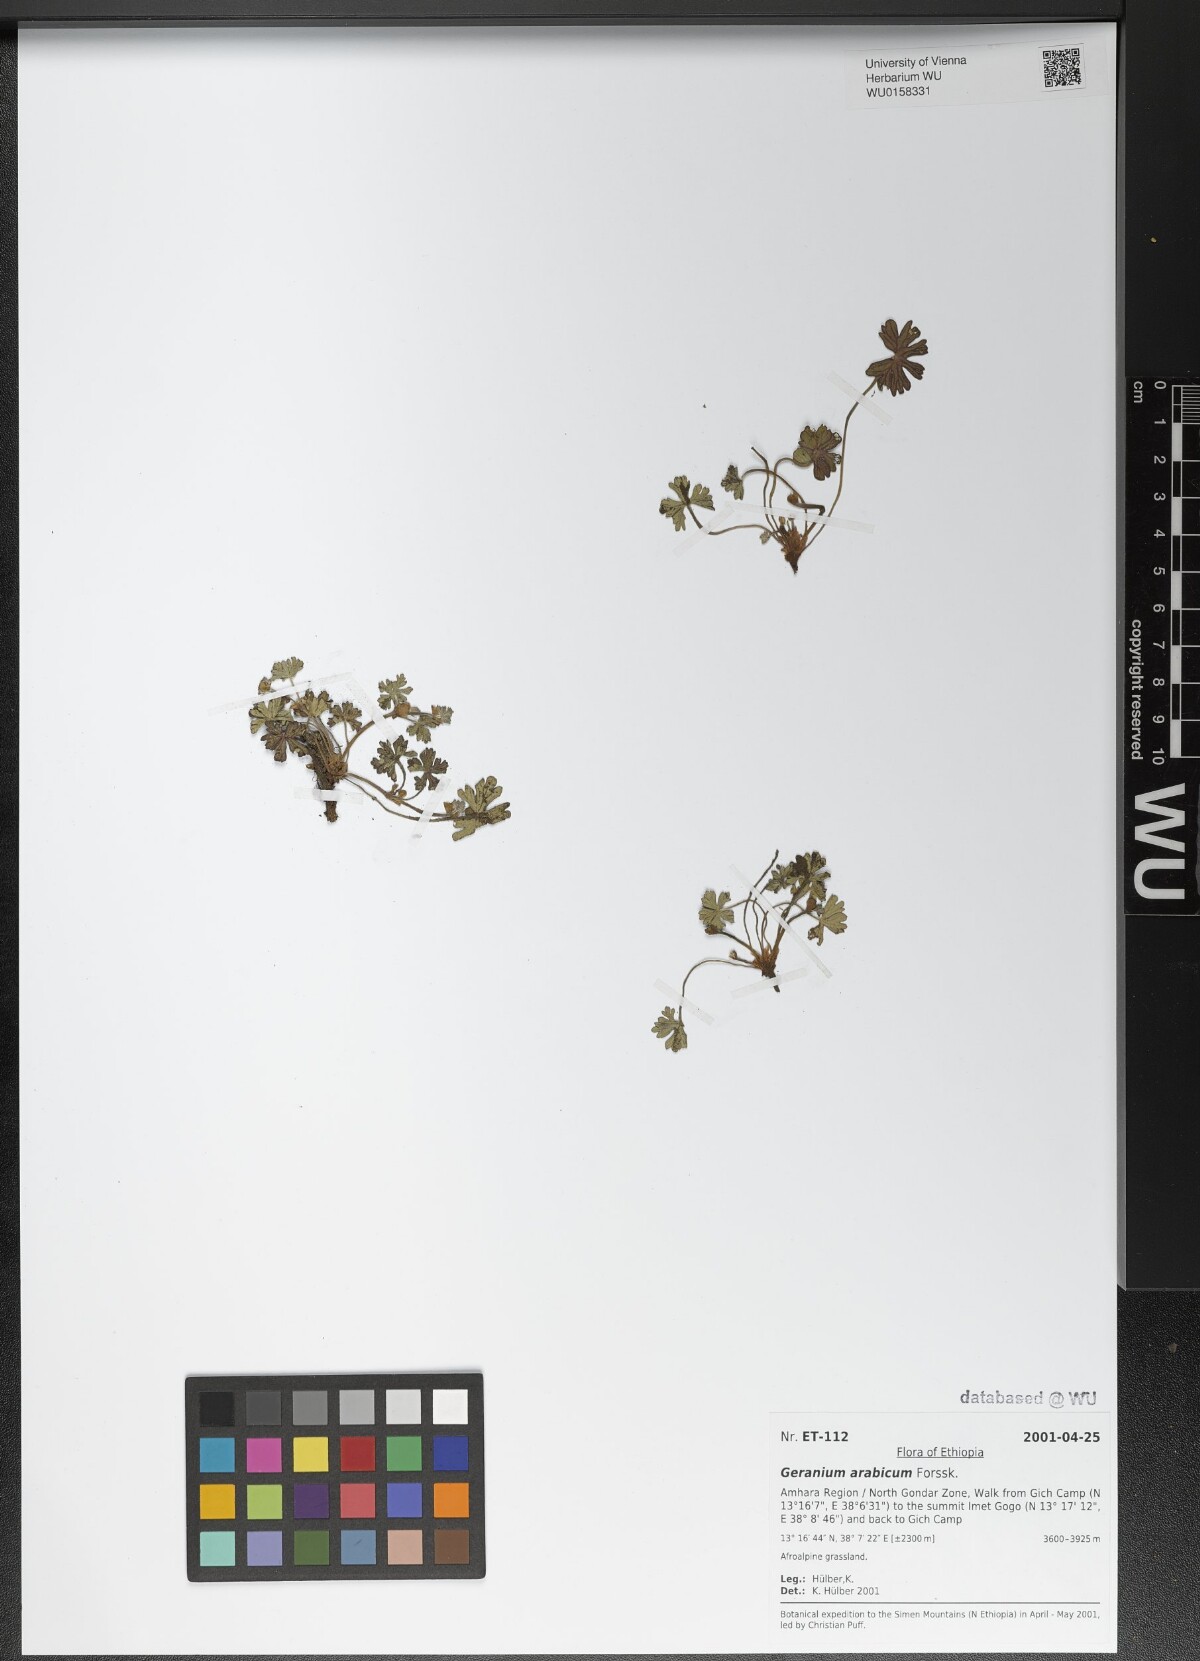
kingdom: Plantae
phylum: Tracheophyta
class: Magnoliopsida
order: Geraniales
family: Geraniaceae
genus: Geranium
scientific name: Geranium arabicum
